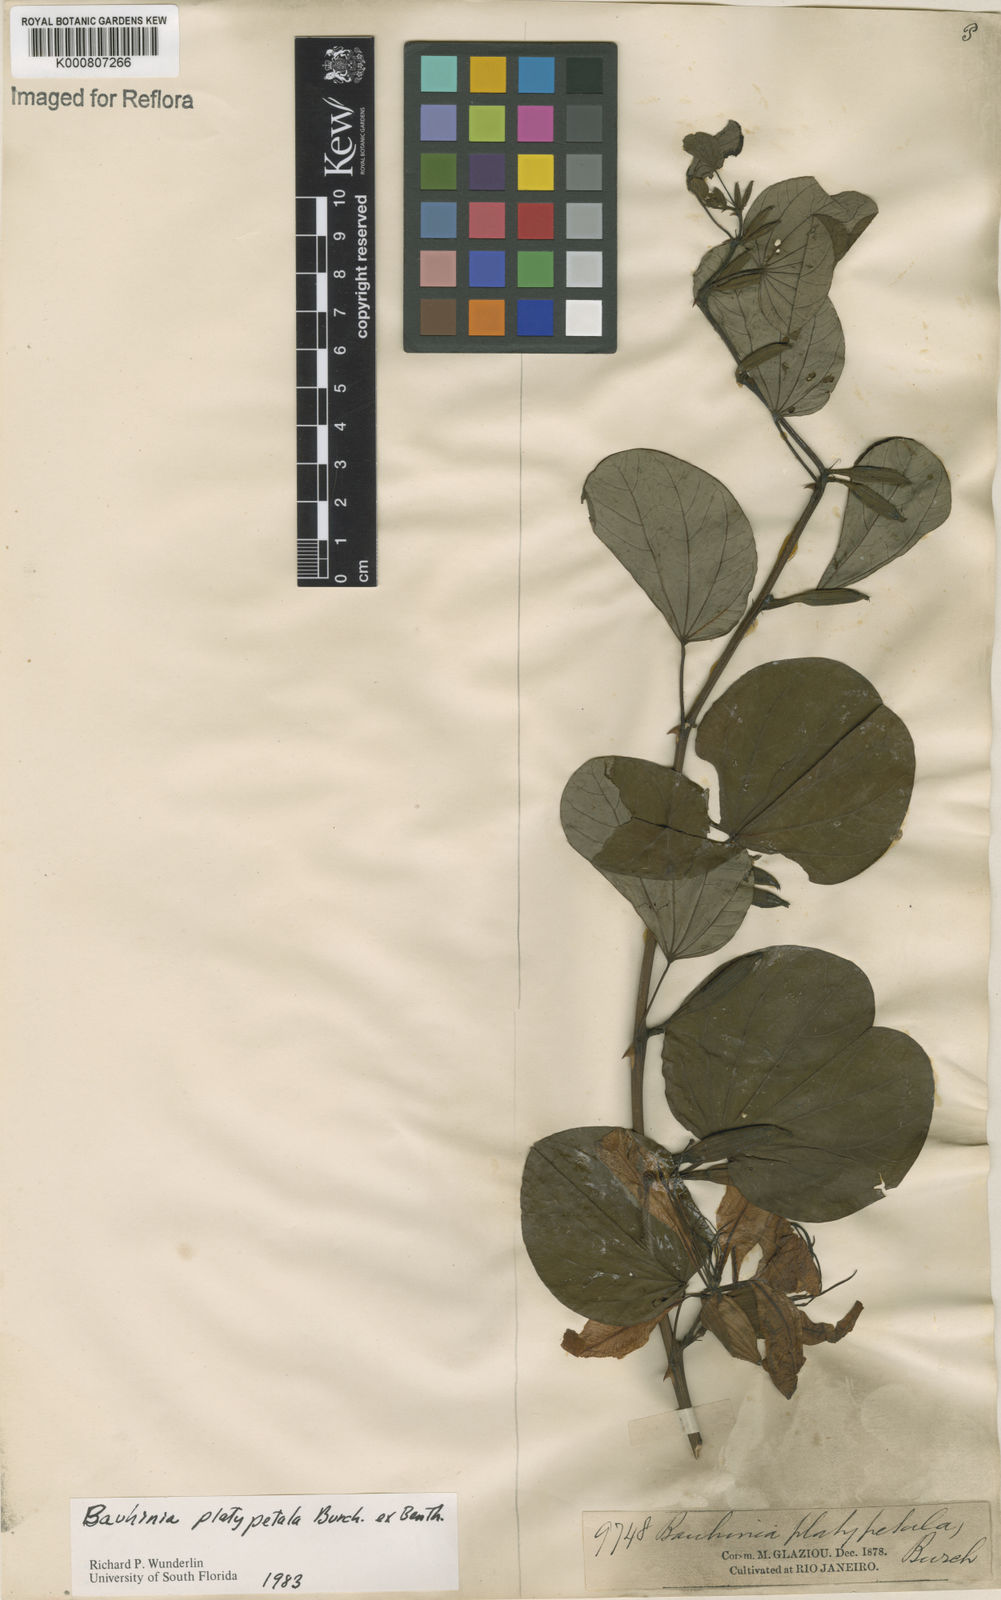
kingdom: Plantae
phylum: Tracheophyta
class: Magnoliopsida
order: Fabales
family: Fabaceae
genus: Bauhinia
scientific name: Bauhinia platypetala
